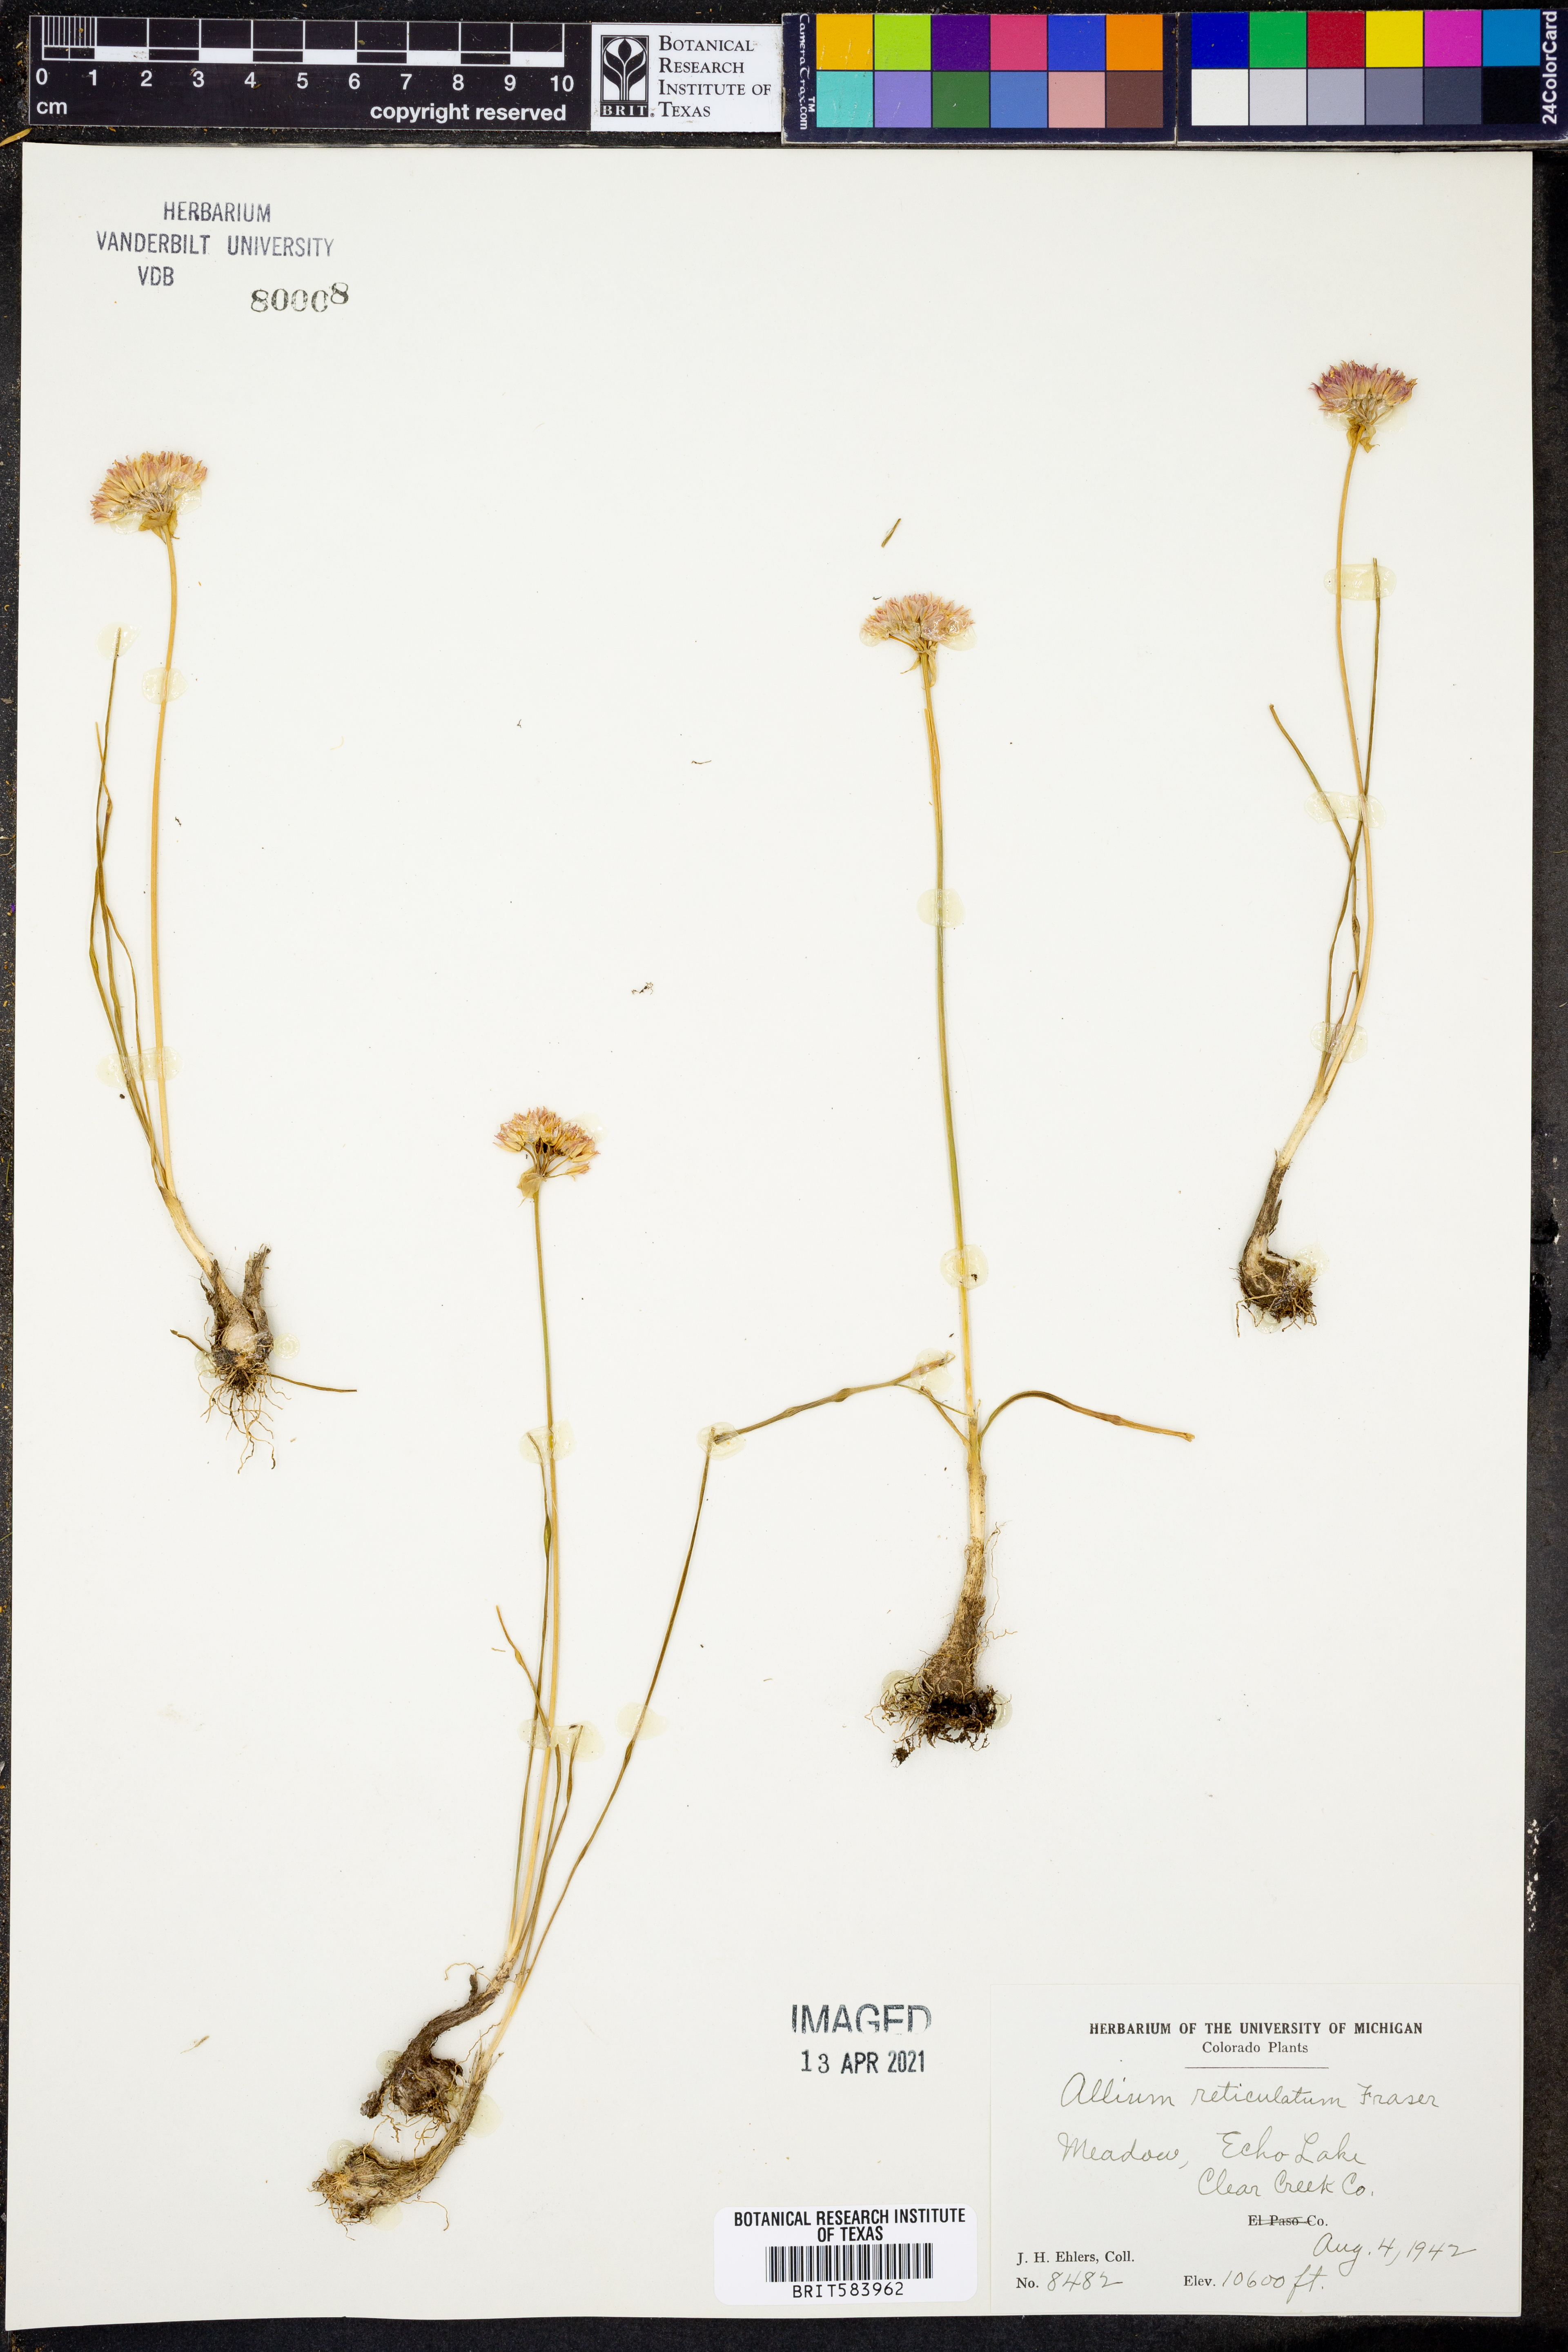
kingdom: Plantae
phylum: Tracheophyta
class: Liliopsida
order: Asparagales
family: Amaryllidaceae
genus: Allium
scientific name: Allium textile
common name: Prairie onion
